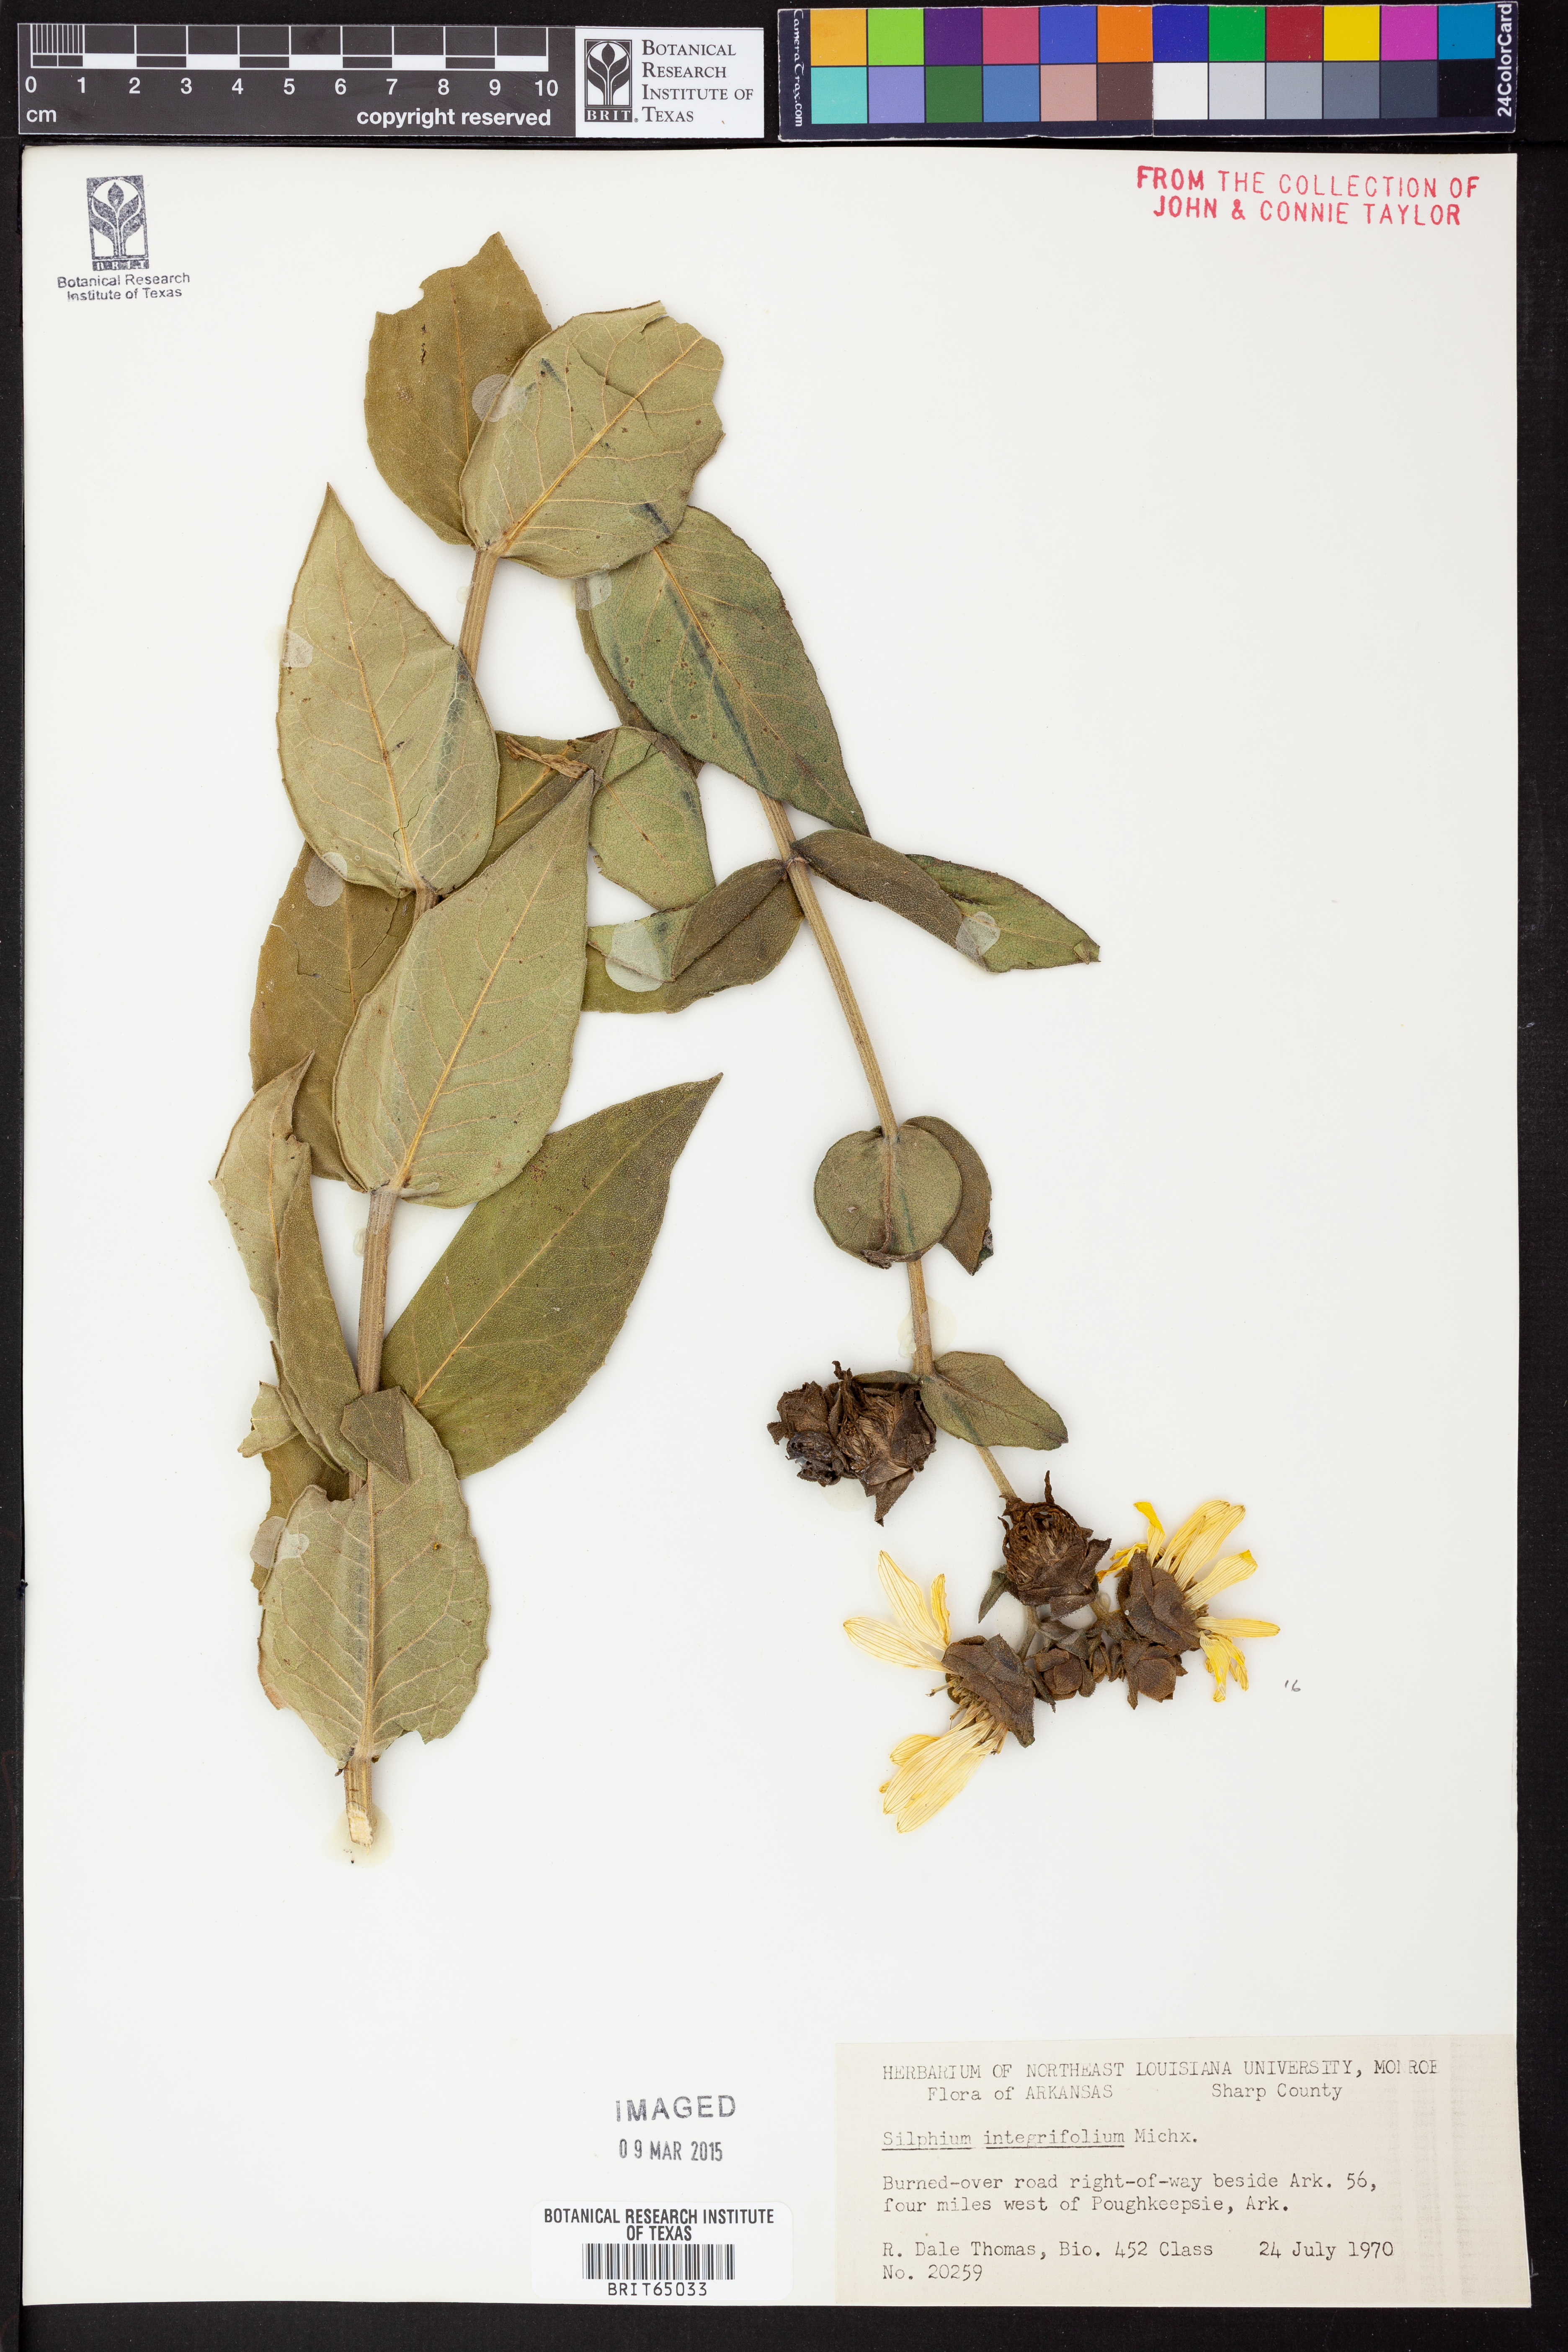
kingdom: Plantae
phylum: Tracheophyta
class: Magnoliopsida
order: Asterales
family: Asteraceae
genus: Silphium
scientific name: Silphium integrifolium
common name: Whole-leaf rosinweed
